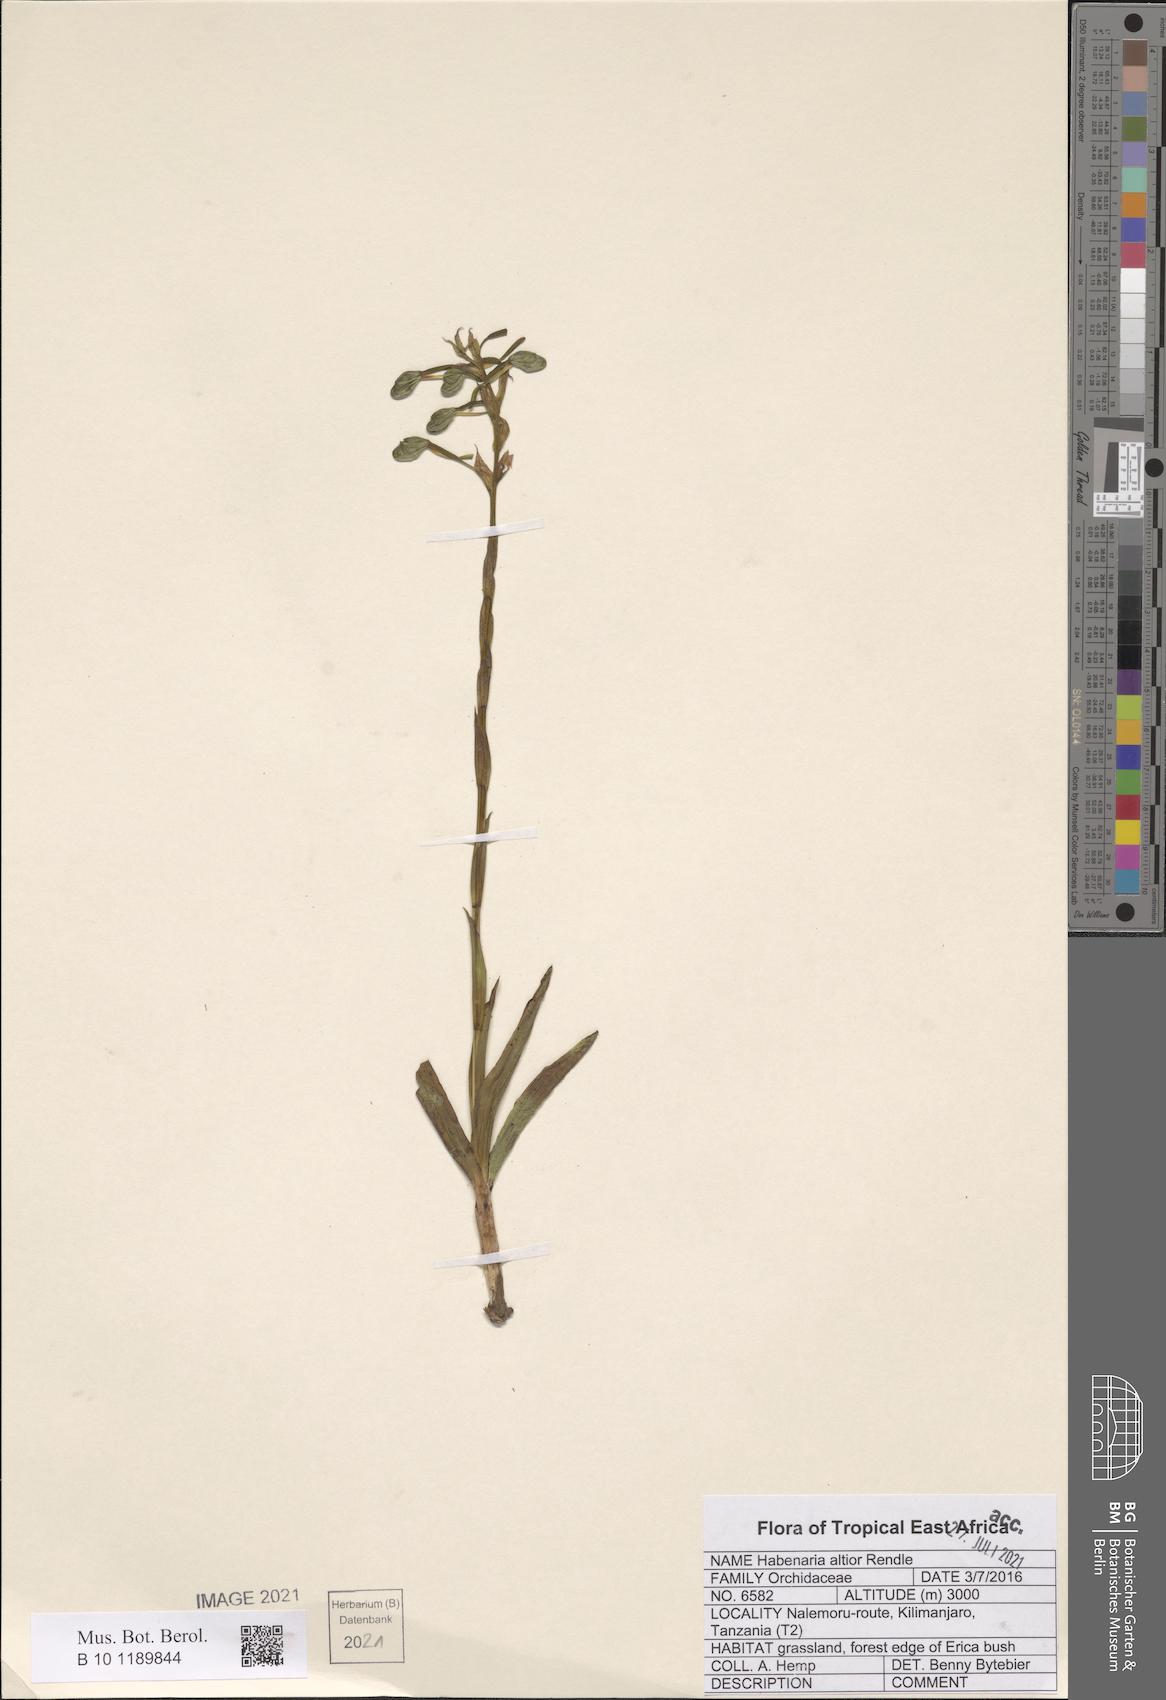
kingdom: Plantae
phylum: Tracheophyta
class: Liliopsida
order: Asparagales
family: Orchidaceae
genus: Habenaria
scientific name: Habenaria altior
